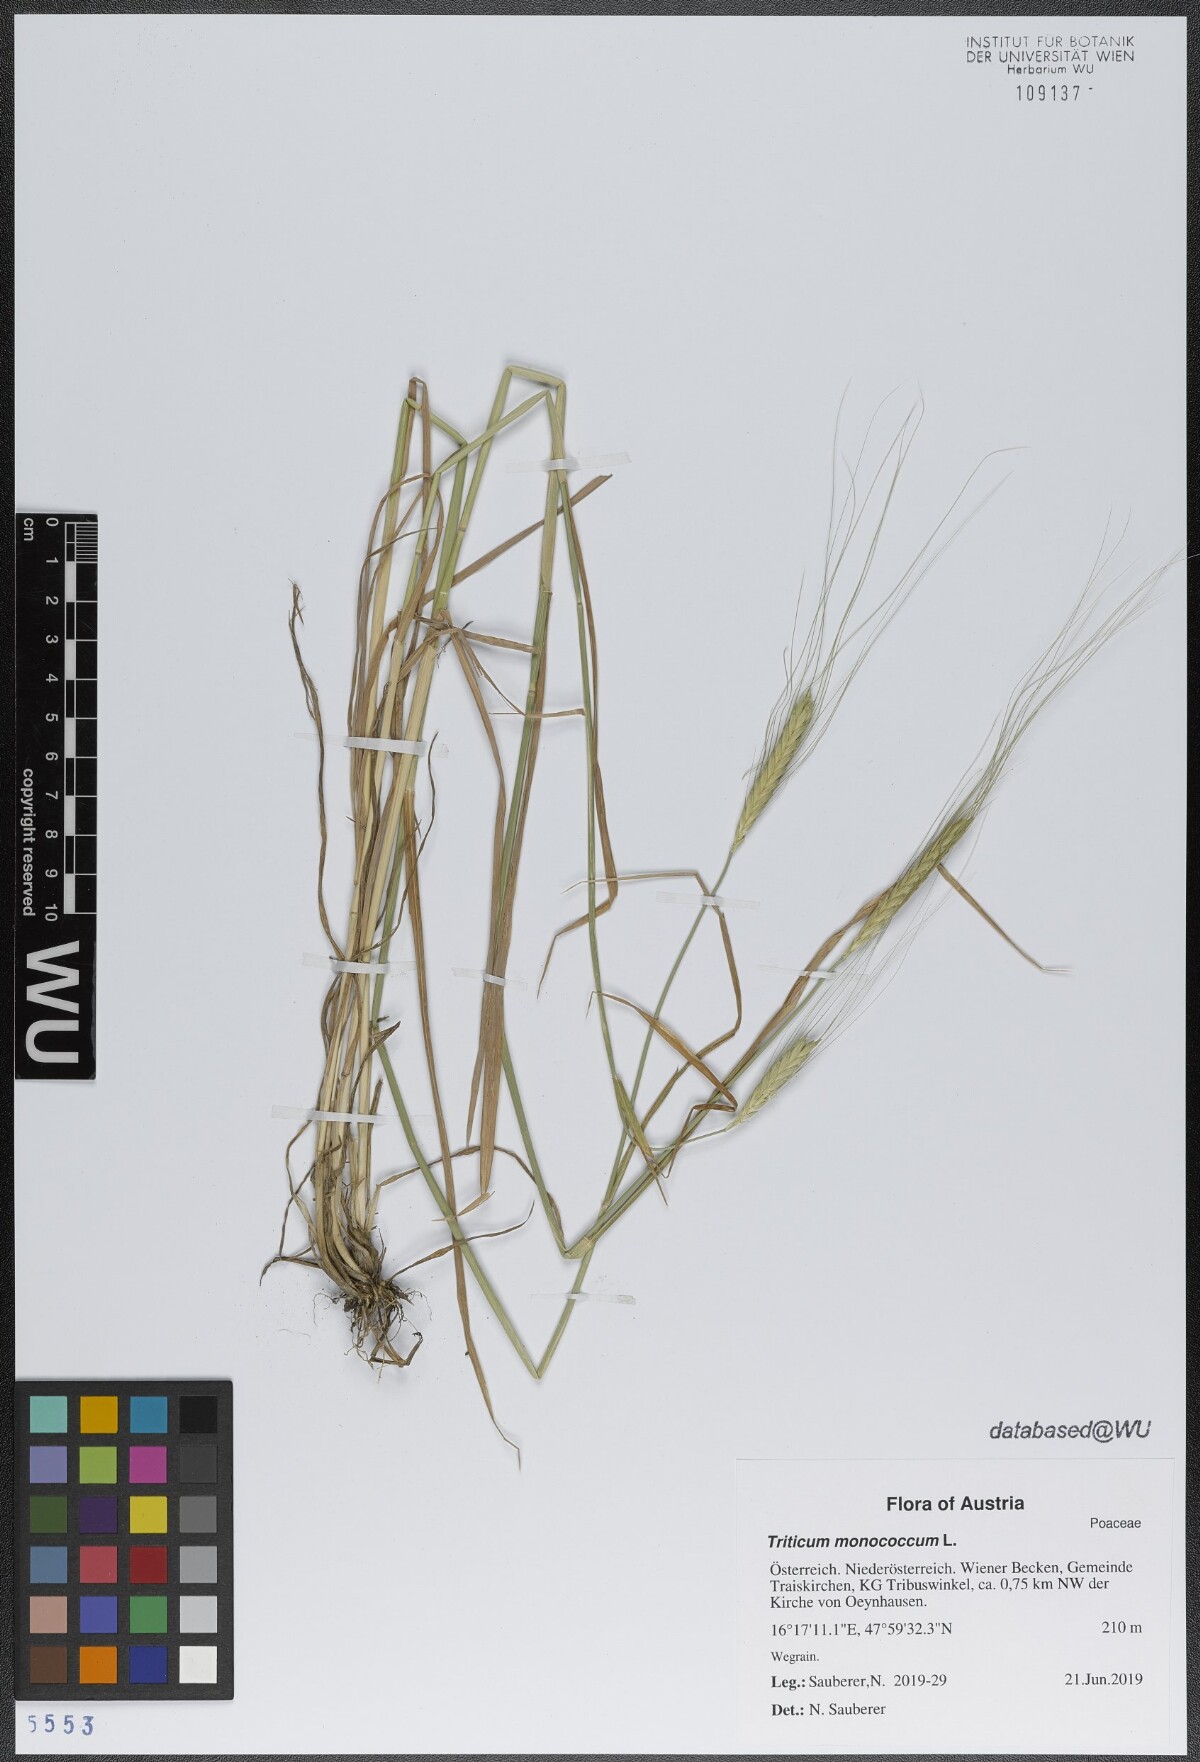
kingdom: Plantae
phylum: Tracheophyta
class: Liliopsida
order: Poales
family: Poaceae
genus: Triticum
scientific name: Triticum monococcum
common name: Einkorn
